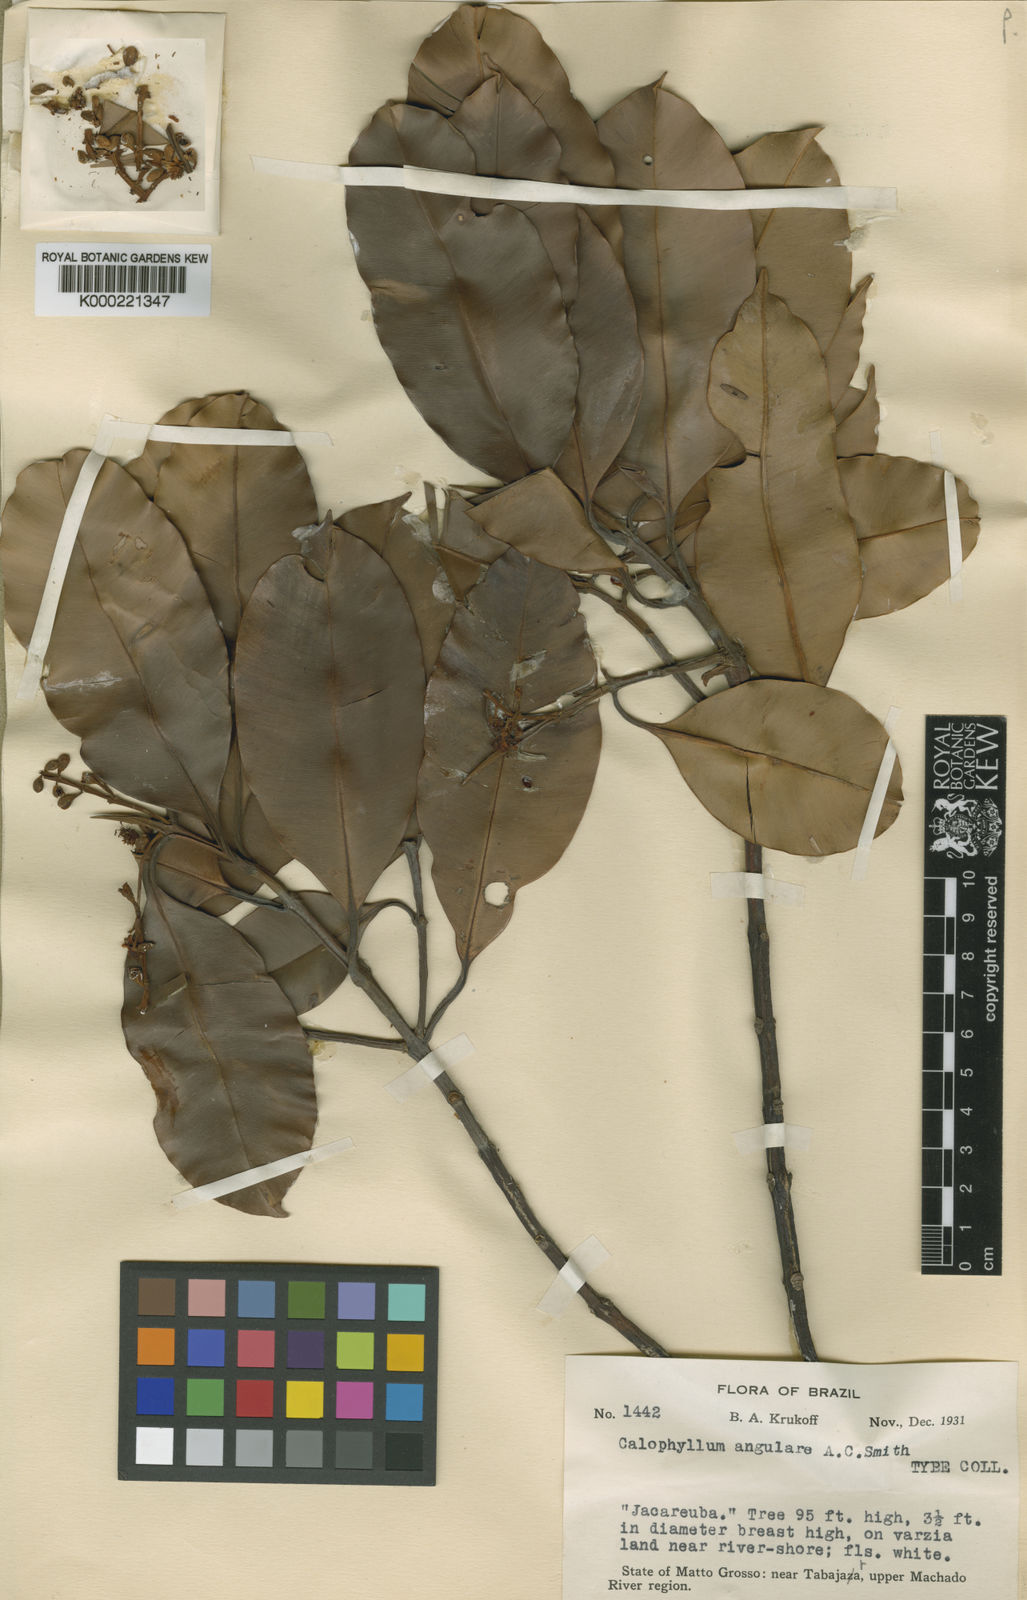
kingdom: Plantae
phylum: Tracheophyta
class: Magnoliopsida
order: Malpighiales
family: Calophyllaceae
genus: Calophyllum
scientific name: Calophyllum angulare
